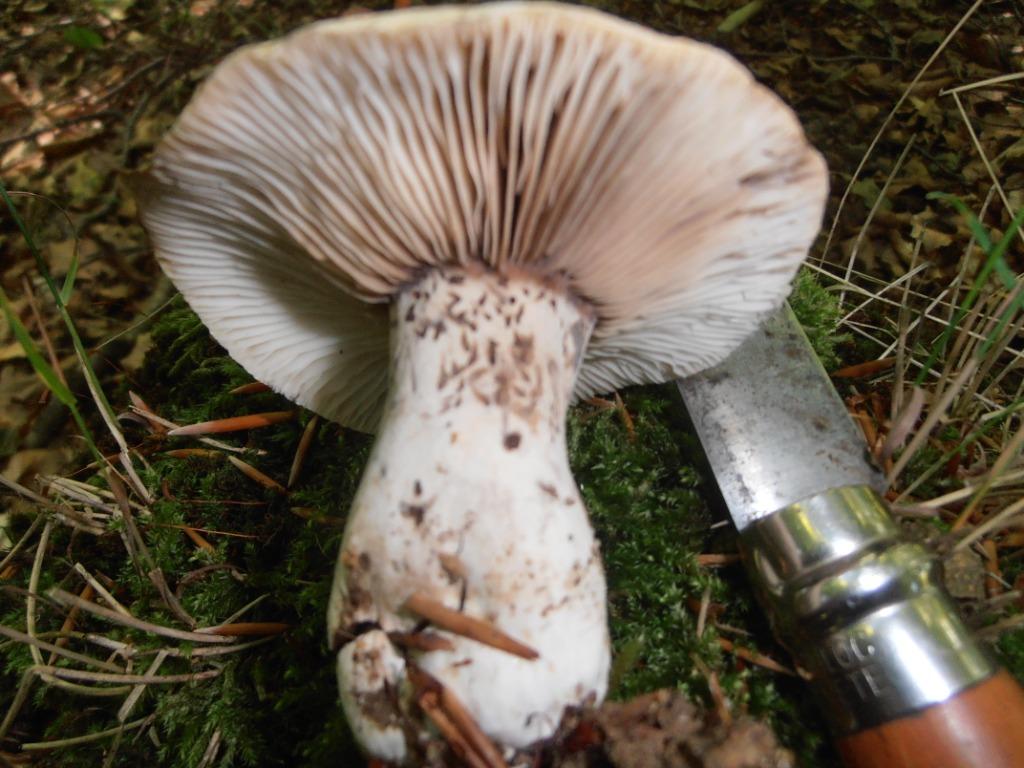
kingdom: Fungi
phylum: Basidiomycota
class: Agaricomycetes
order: Russulales
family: Russulaceae
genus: Russula
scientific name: Russula acrifolia
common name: skarpbladet skørhat
